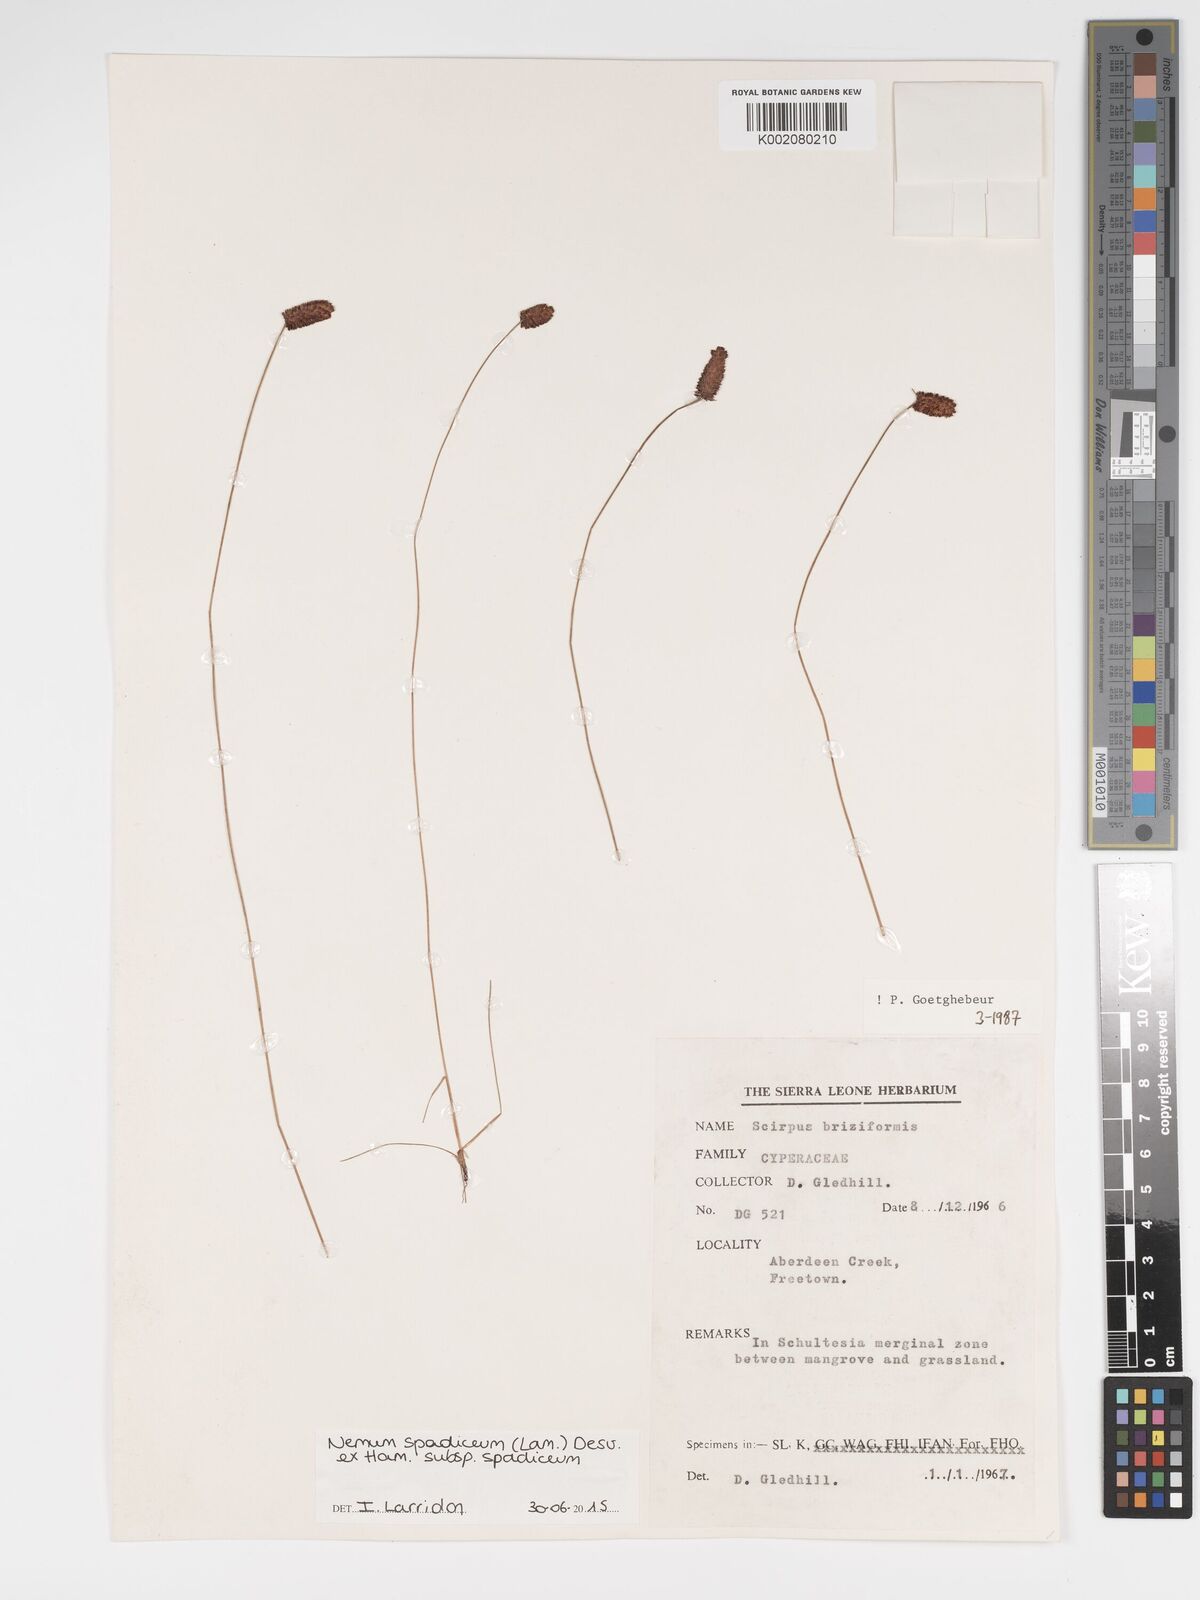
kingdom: Plantae
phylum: Tracheophyta
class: Liliopsida
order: Poales
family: Cyperaceae
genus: Bulbostylis
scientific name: Bulbostylis briziformis
